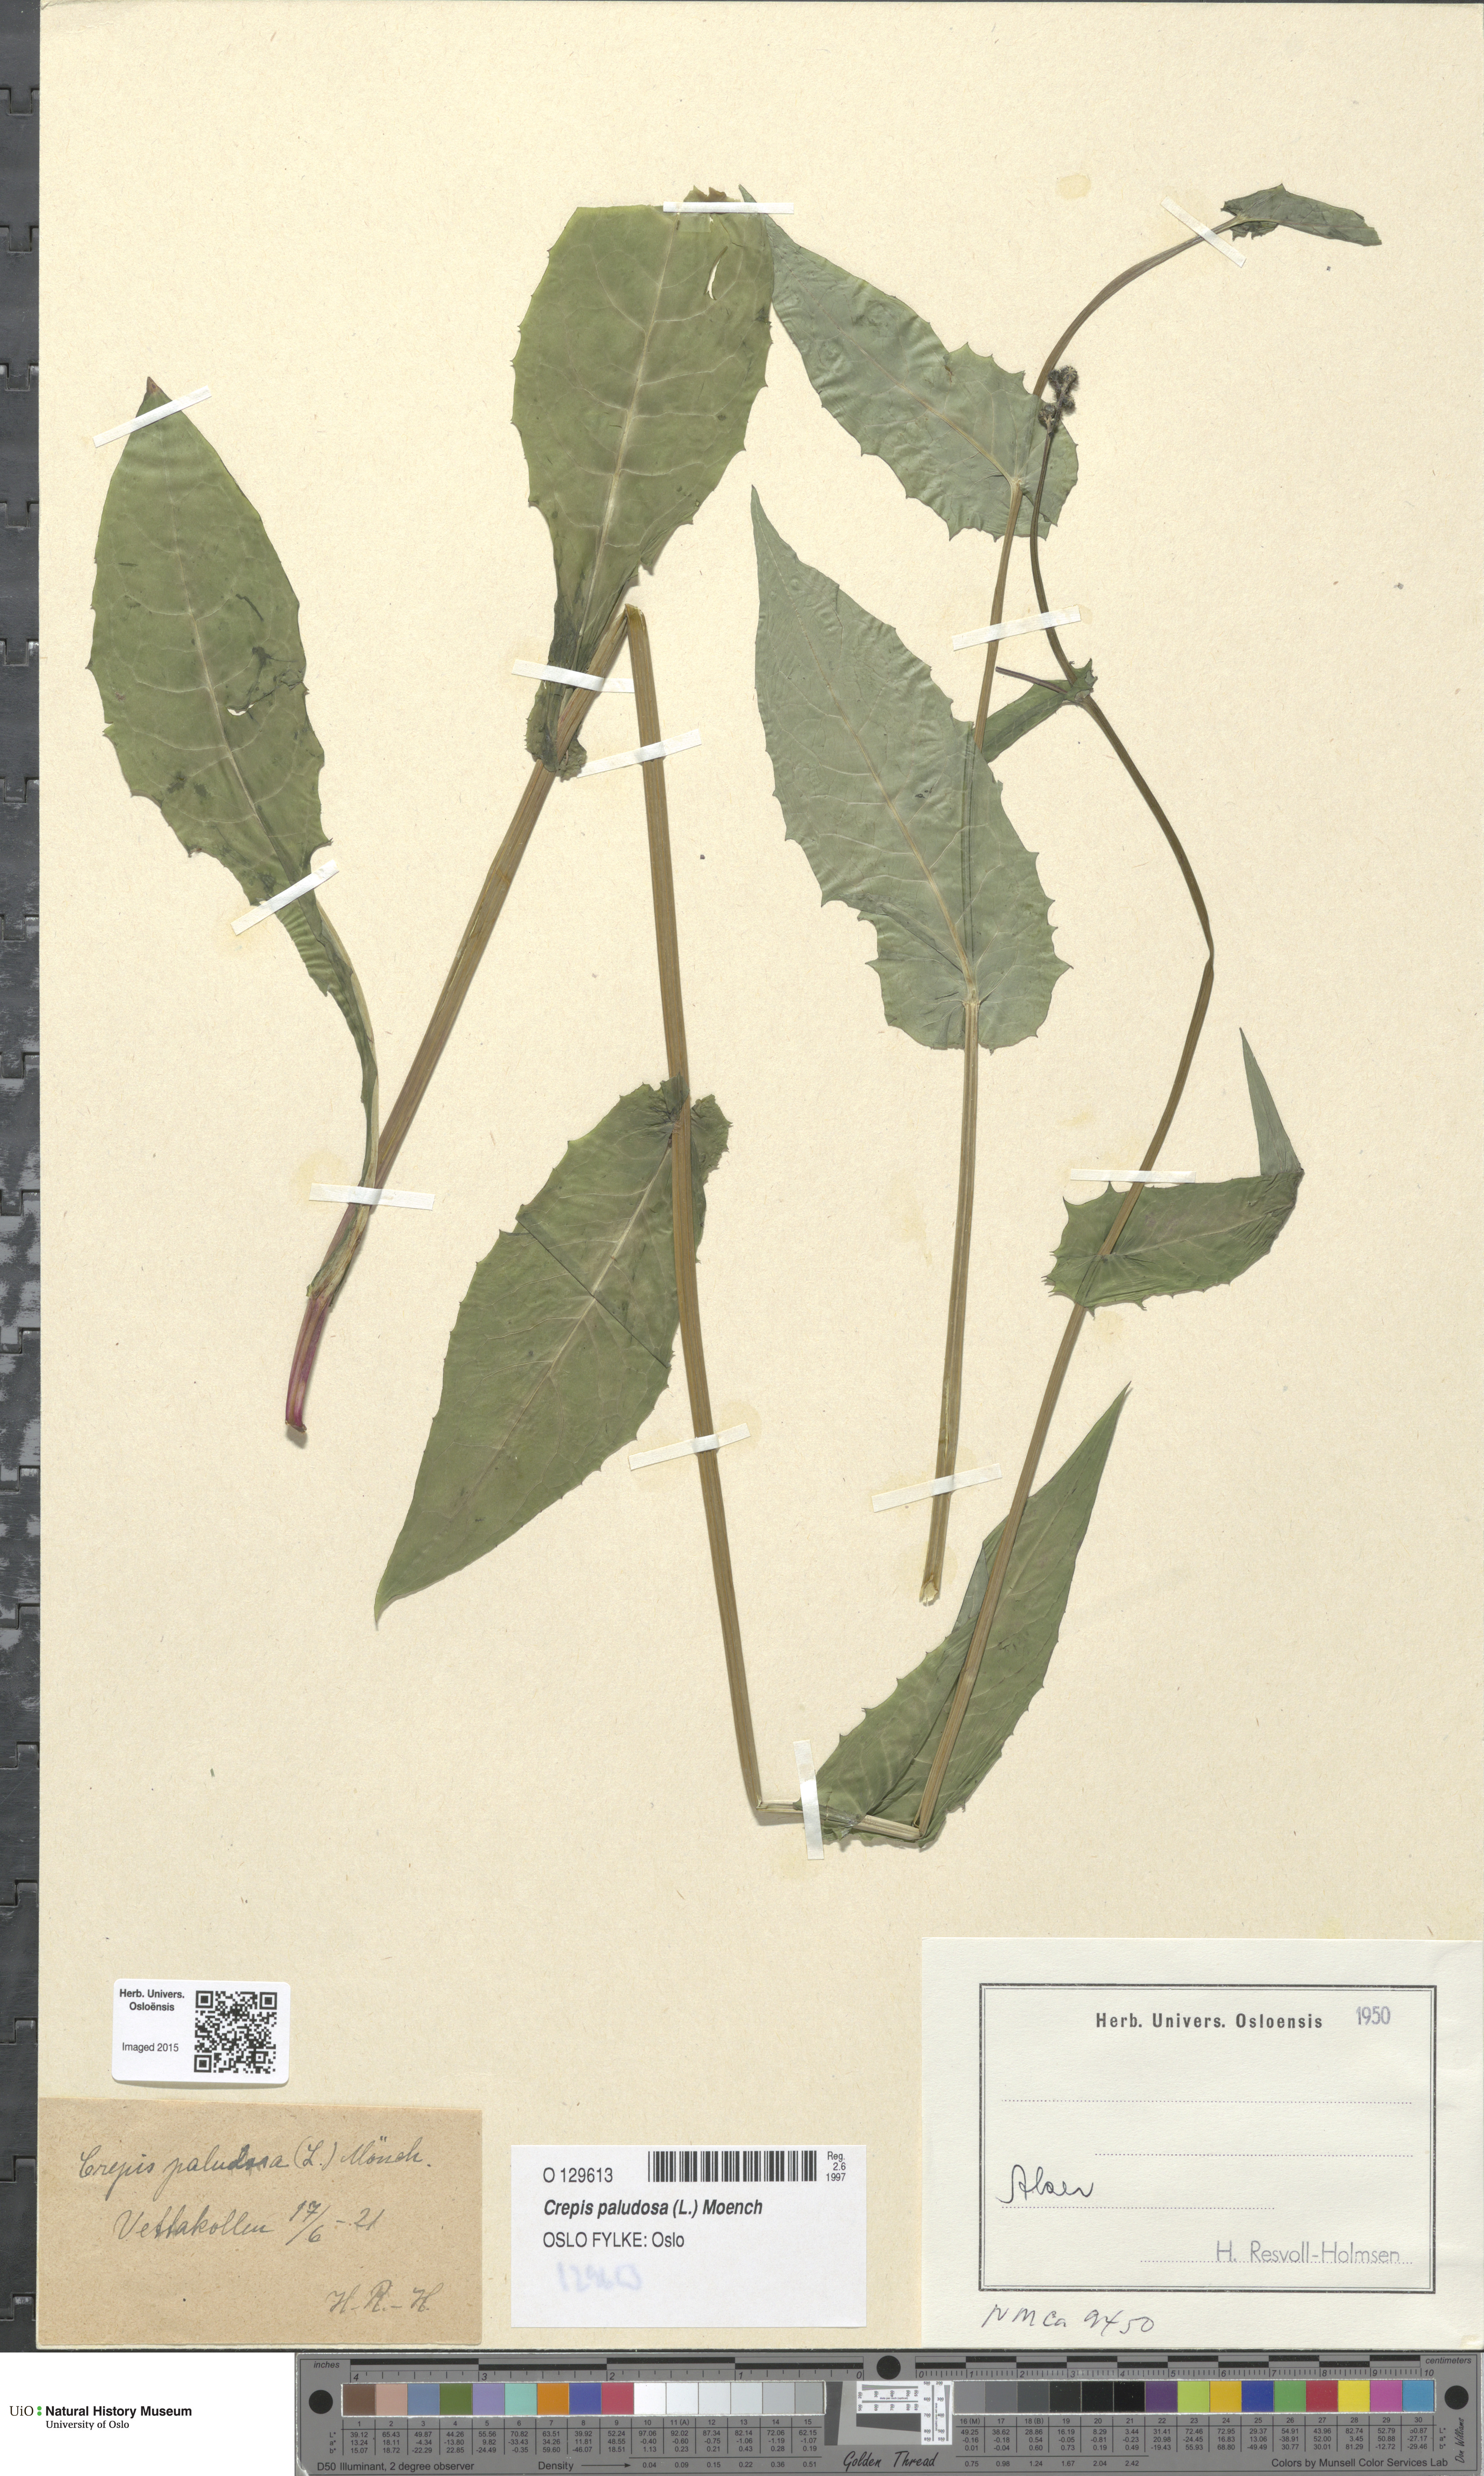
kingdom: Plantae
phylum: Tracheophyta
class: Magnoliopsida
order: Asterales
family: Asteraceae
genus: Crepis
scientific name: Crepis paludosa
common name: Marsh hawk's-beard
